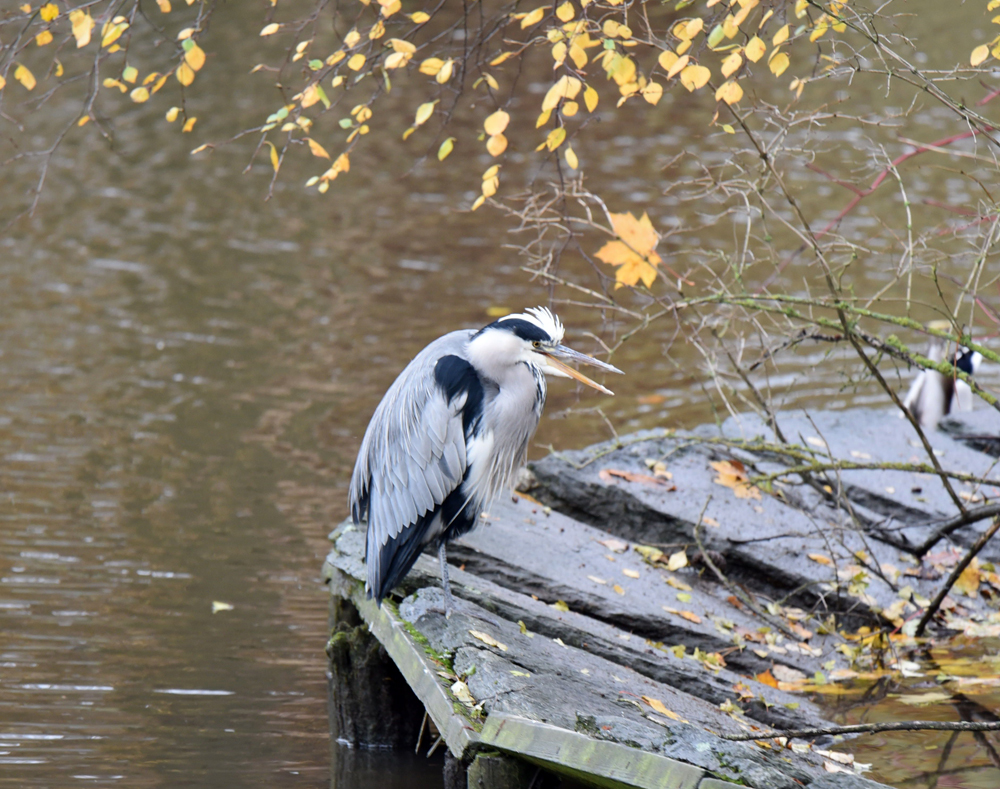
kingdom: Animalia
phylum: Chordata
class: Aves
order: Pelecaniformes
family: Ardeidae
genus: Ardea
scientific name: Ardea cinerea
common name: Grey heron
